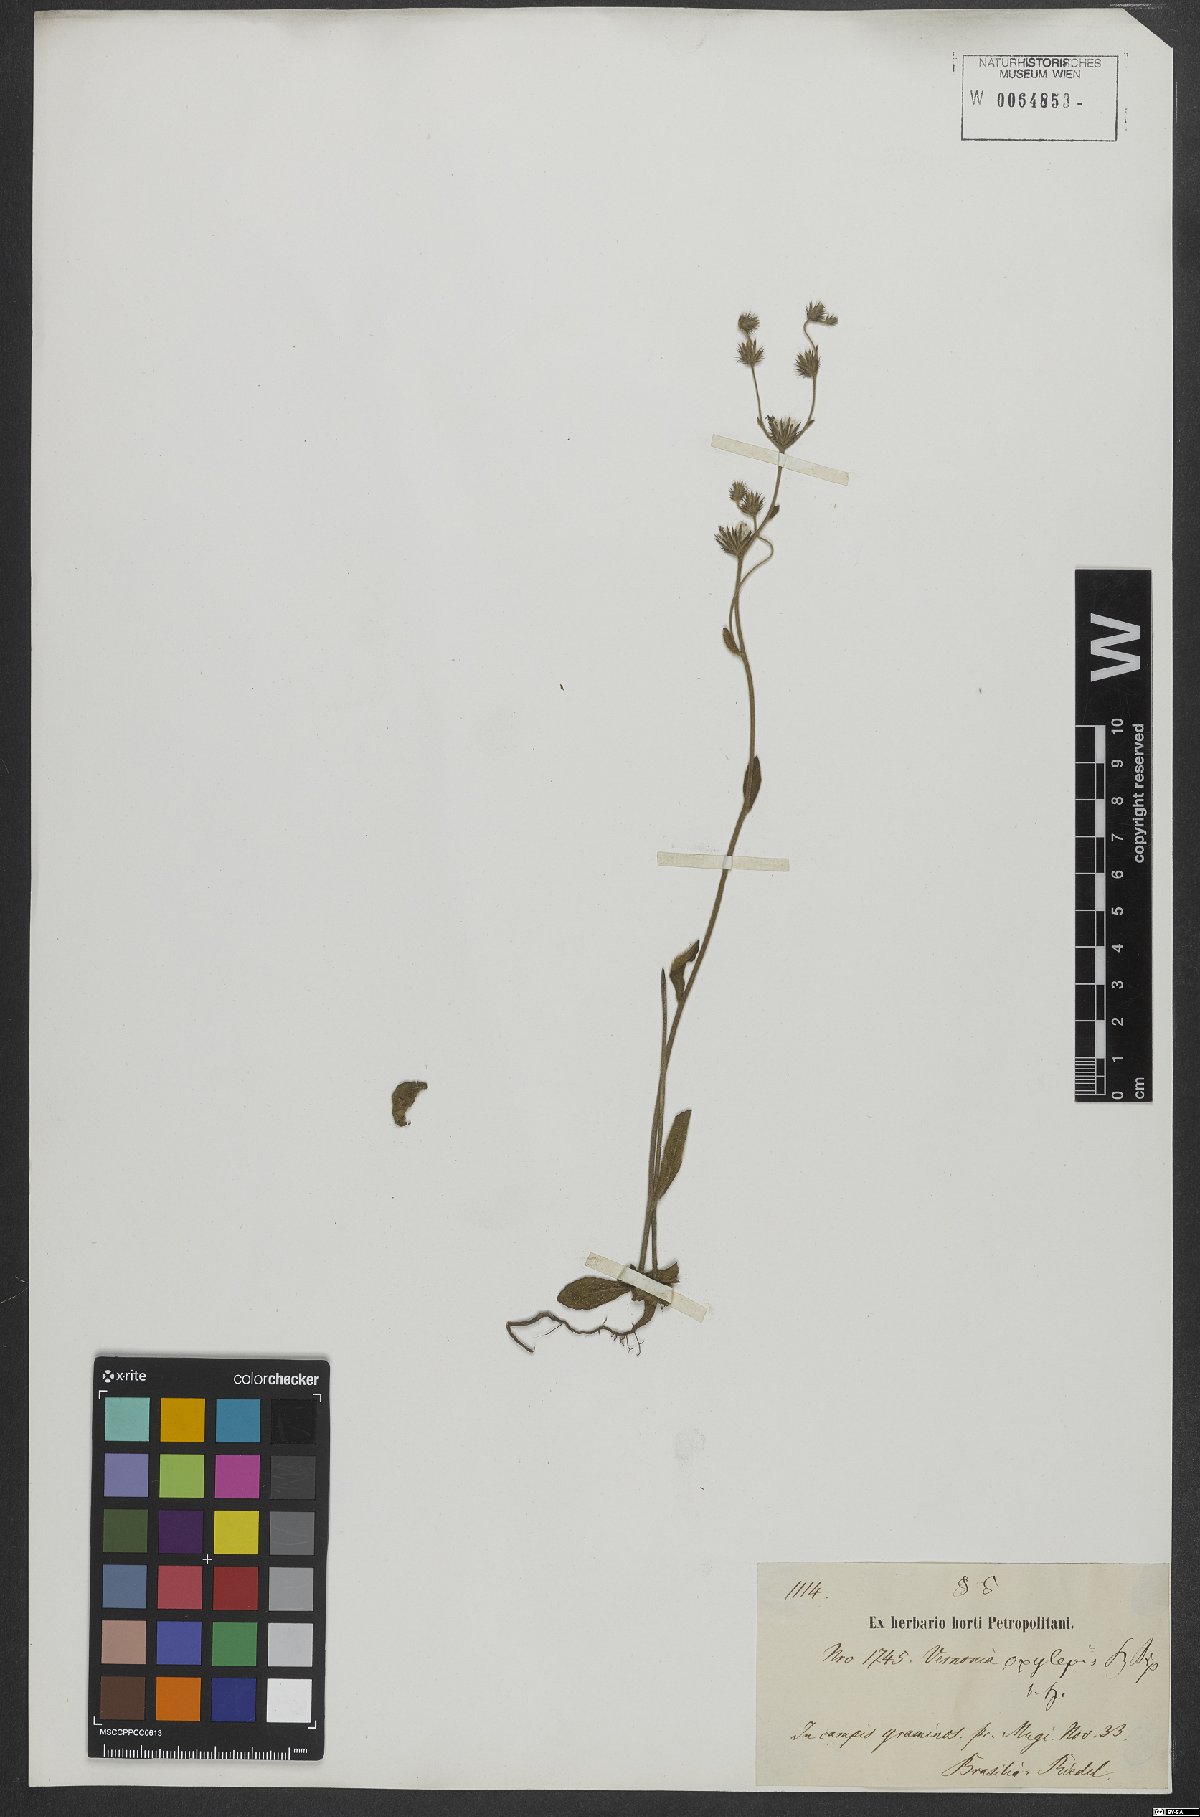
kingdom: Plantae
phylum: Tracheophyta
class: Magnoliopsida
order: Asterales
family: Asteraceae
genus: Lepidaploa
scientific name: Lepidaploa psilostachya
